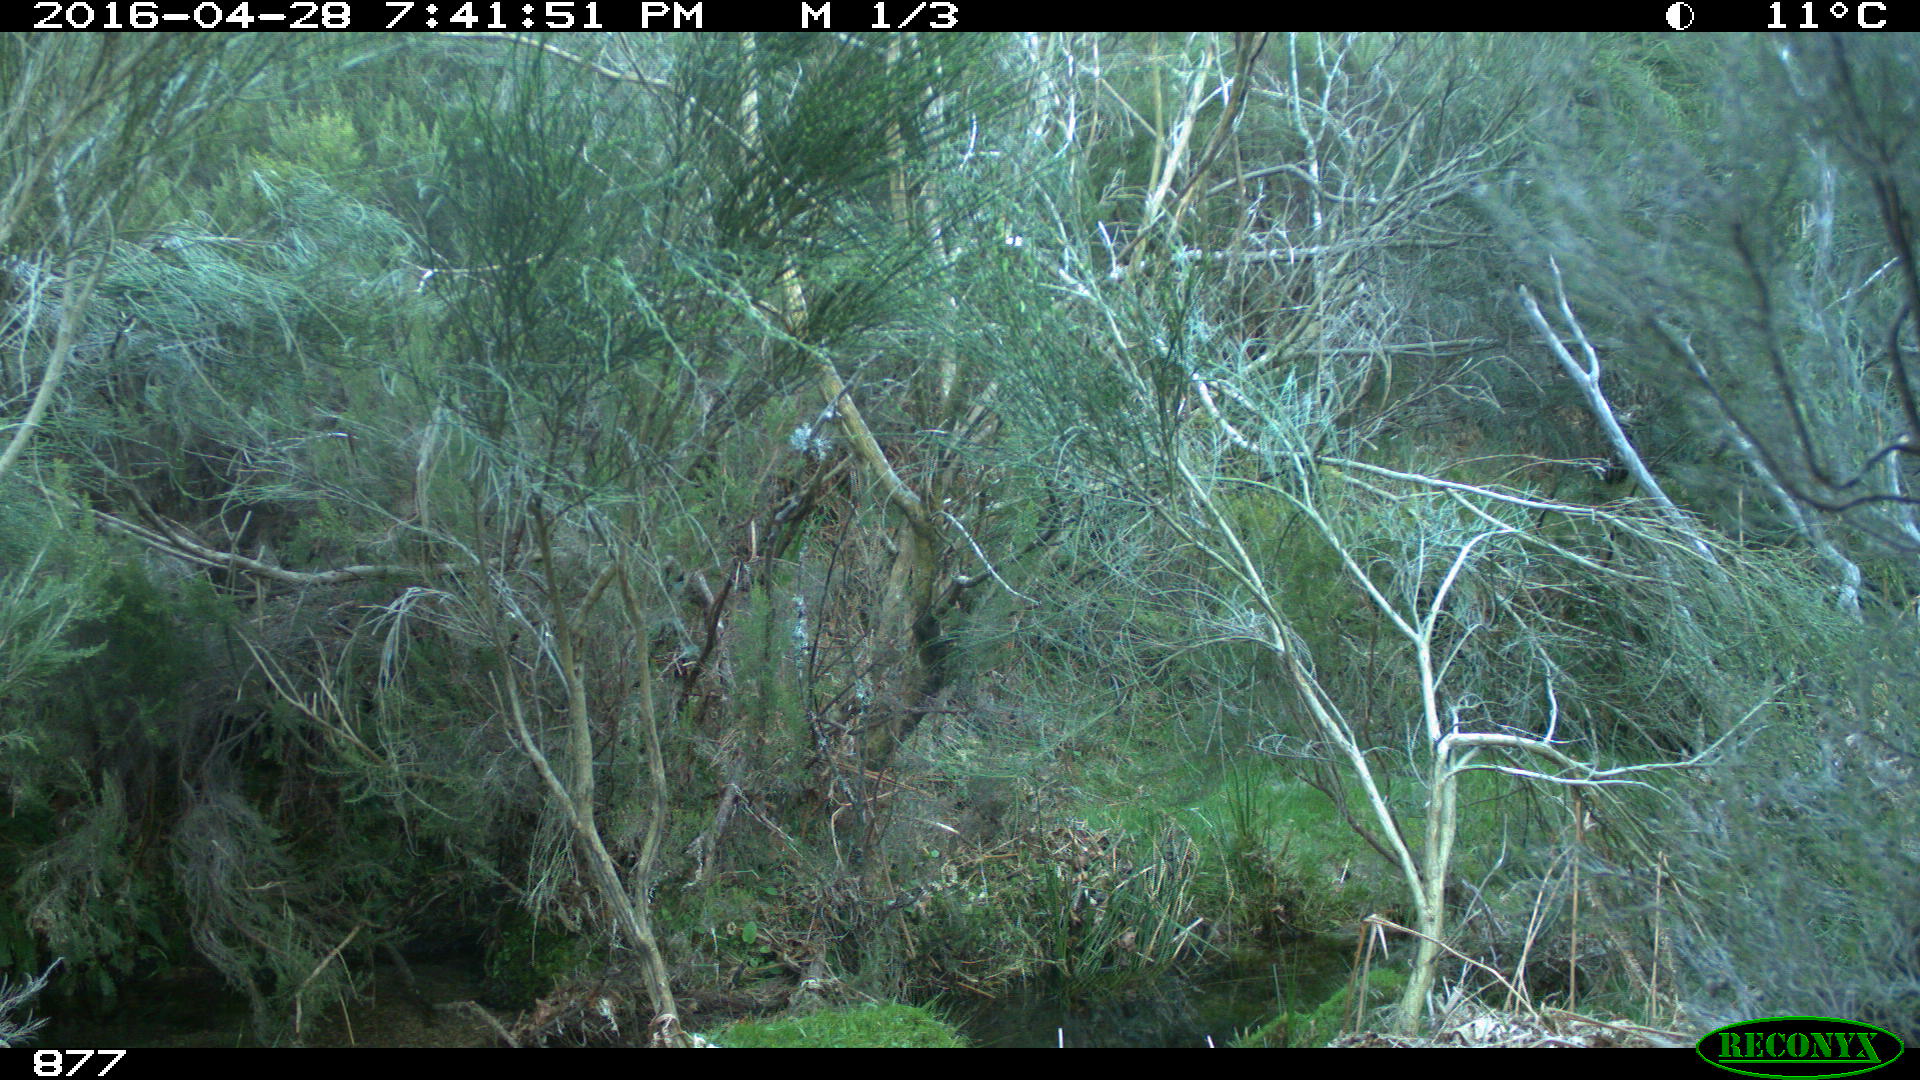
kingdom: Animalia
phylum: Chordata
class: Mammalia
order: Artiodactyla
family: Cervidae
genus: Capreolus
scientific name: Capreolus capreolus
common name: Western roe deer
